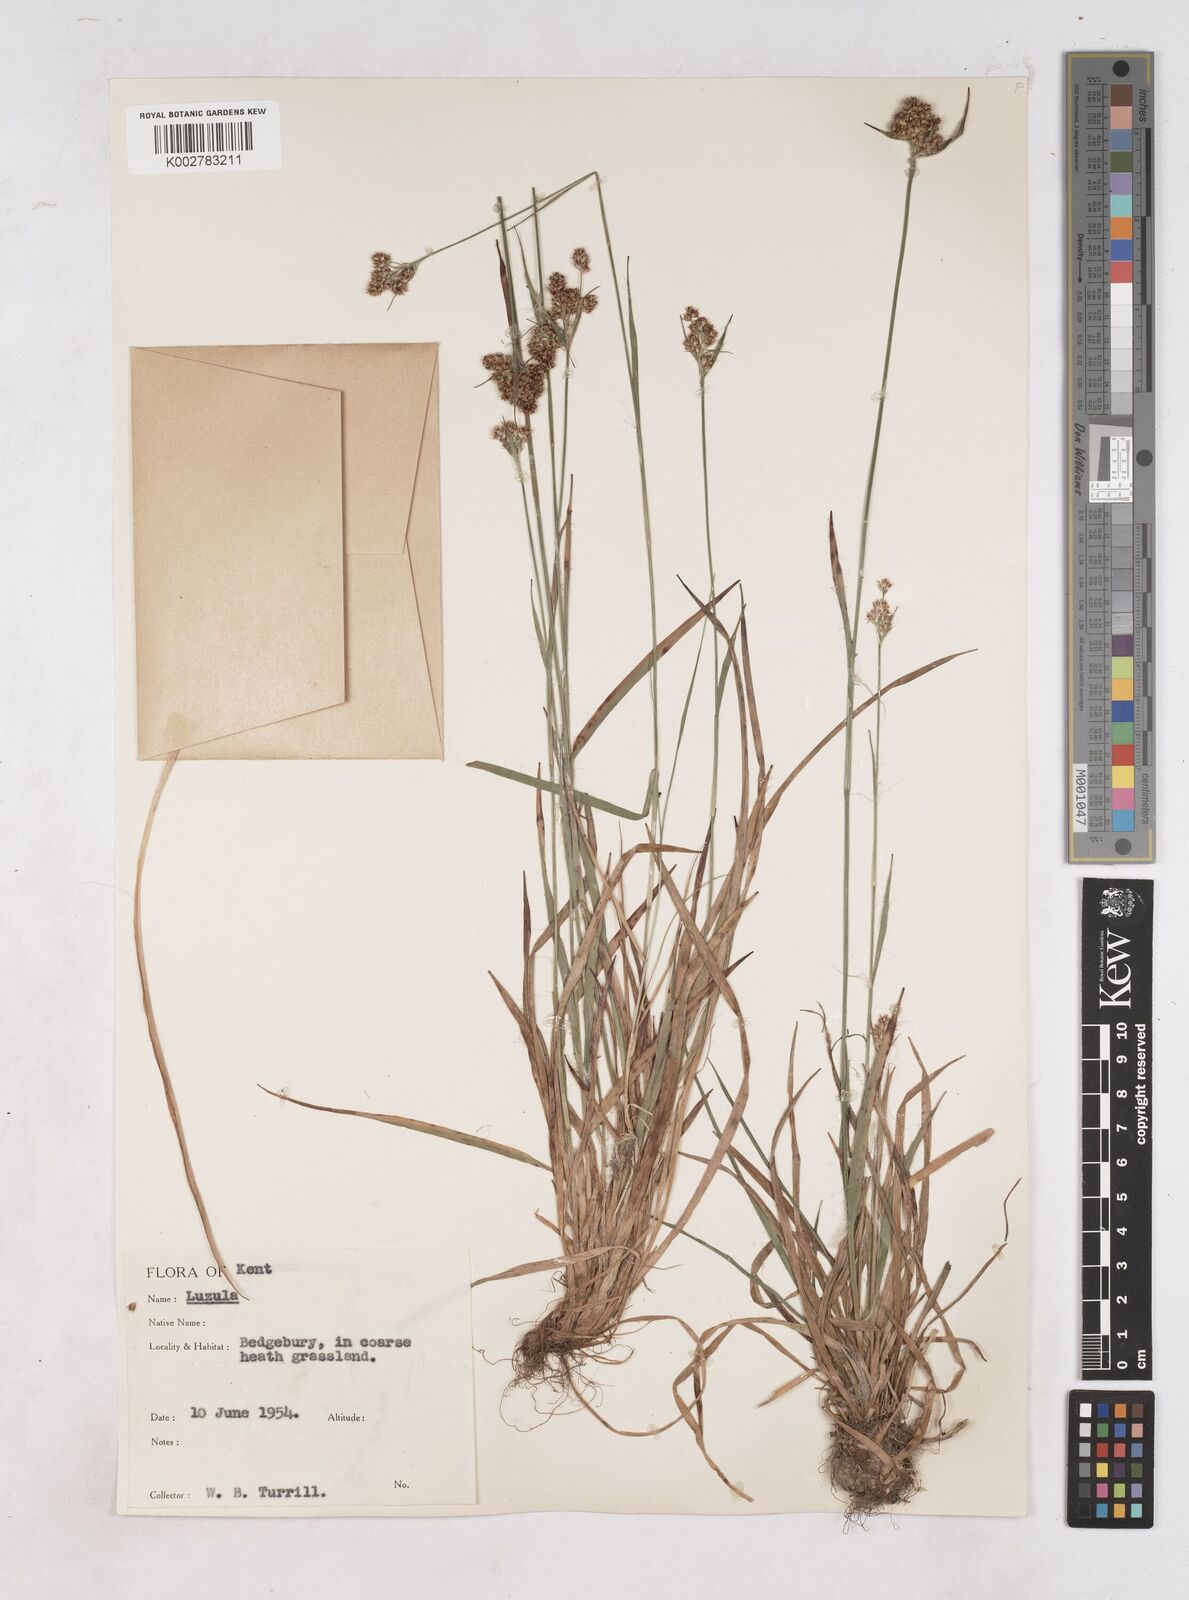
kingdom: Plantae
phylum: Tracheophyta
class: Liliopsida
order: Poales
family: Juncaceae
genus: Luzula
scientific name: Luzula multiflora
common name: Heath wood-rush
